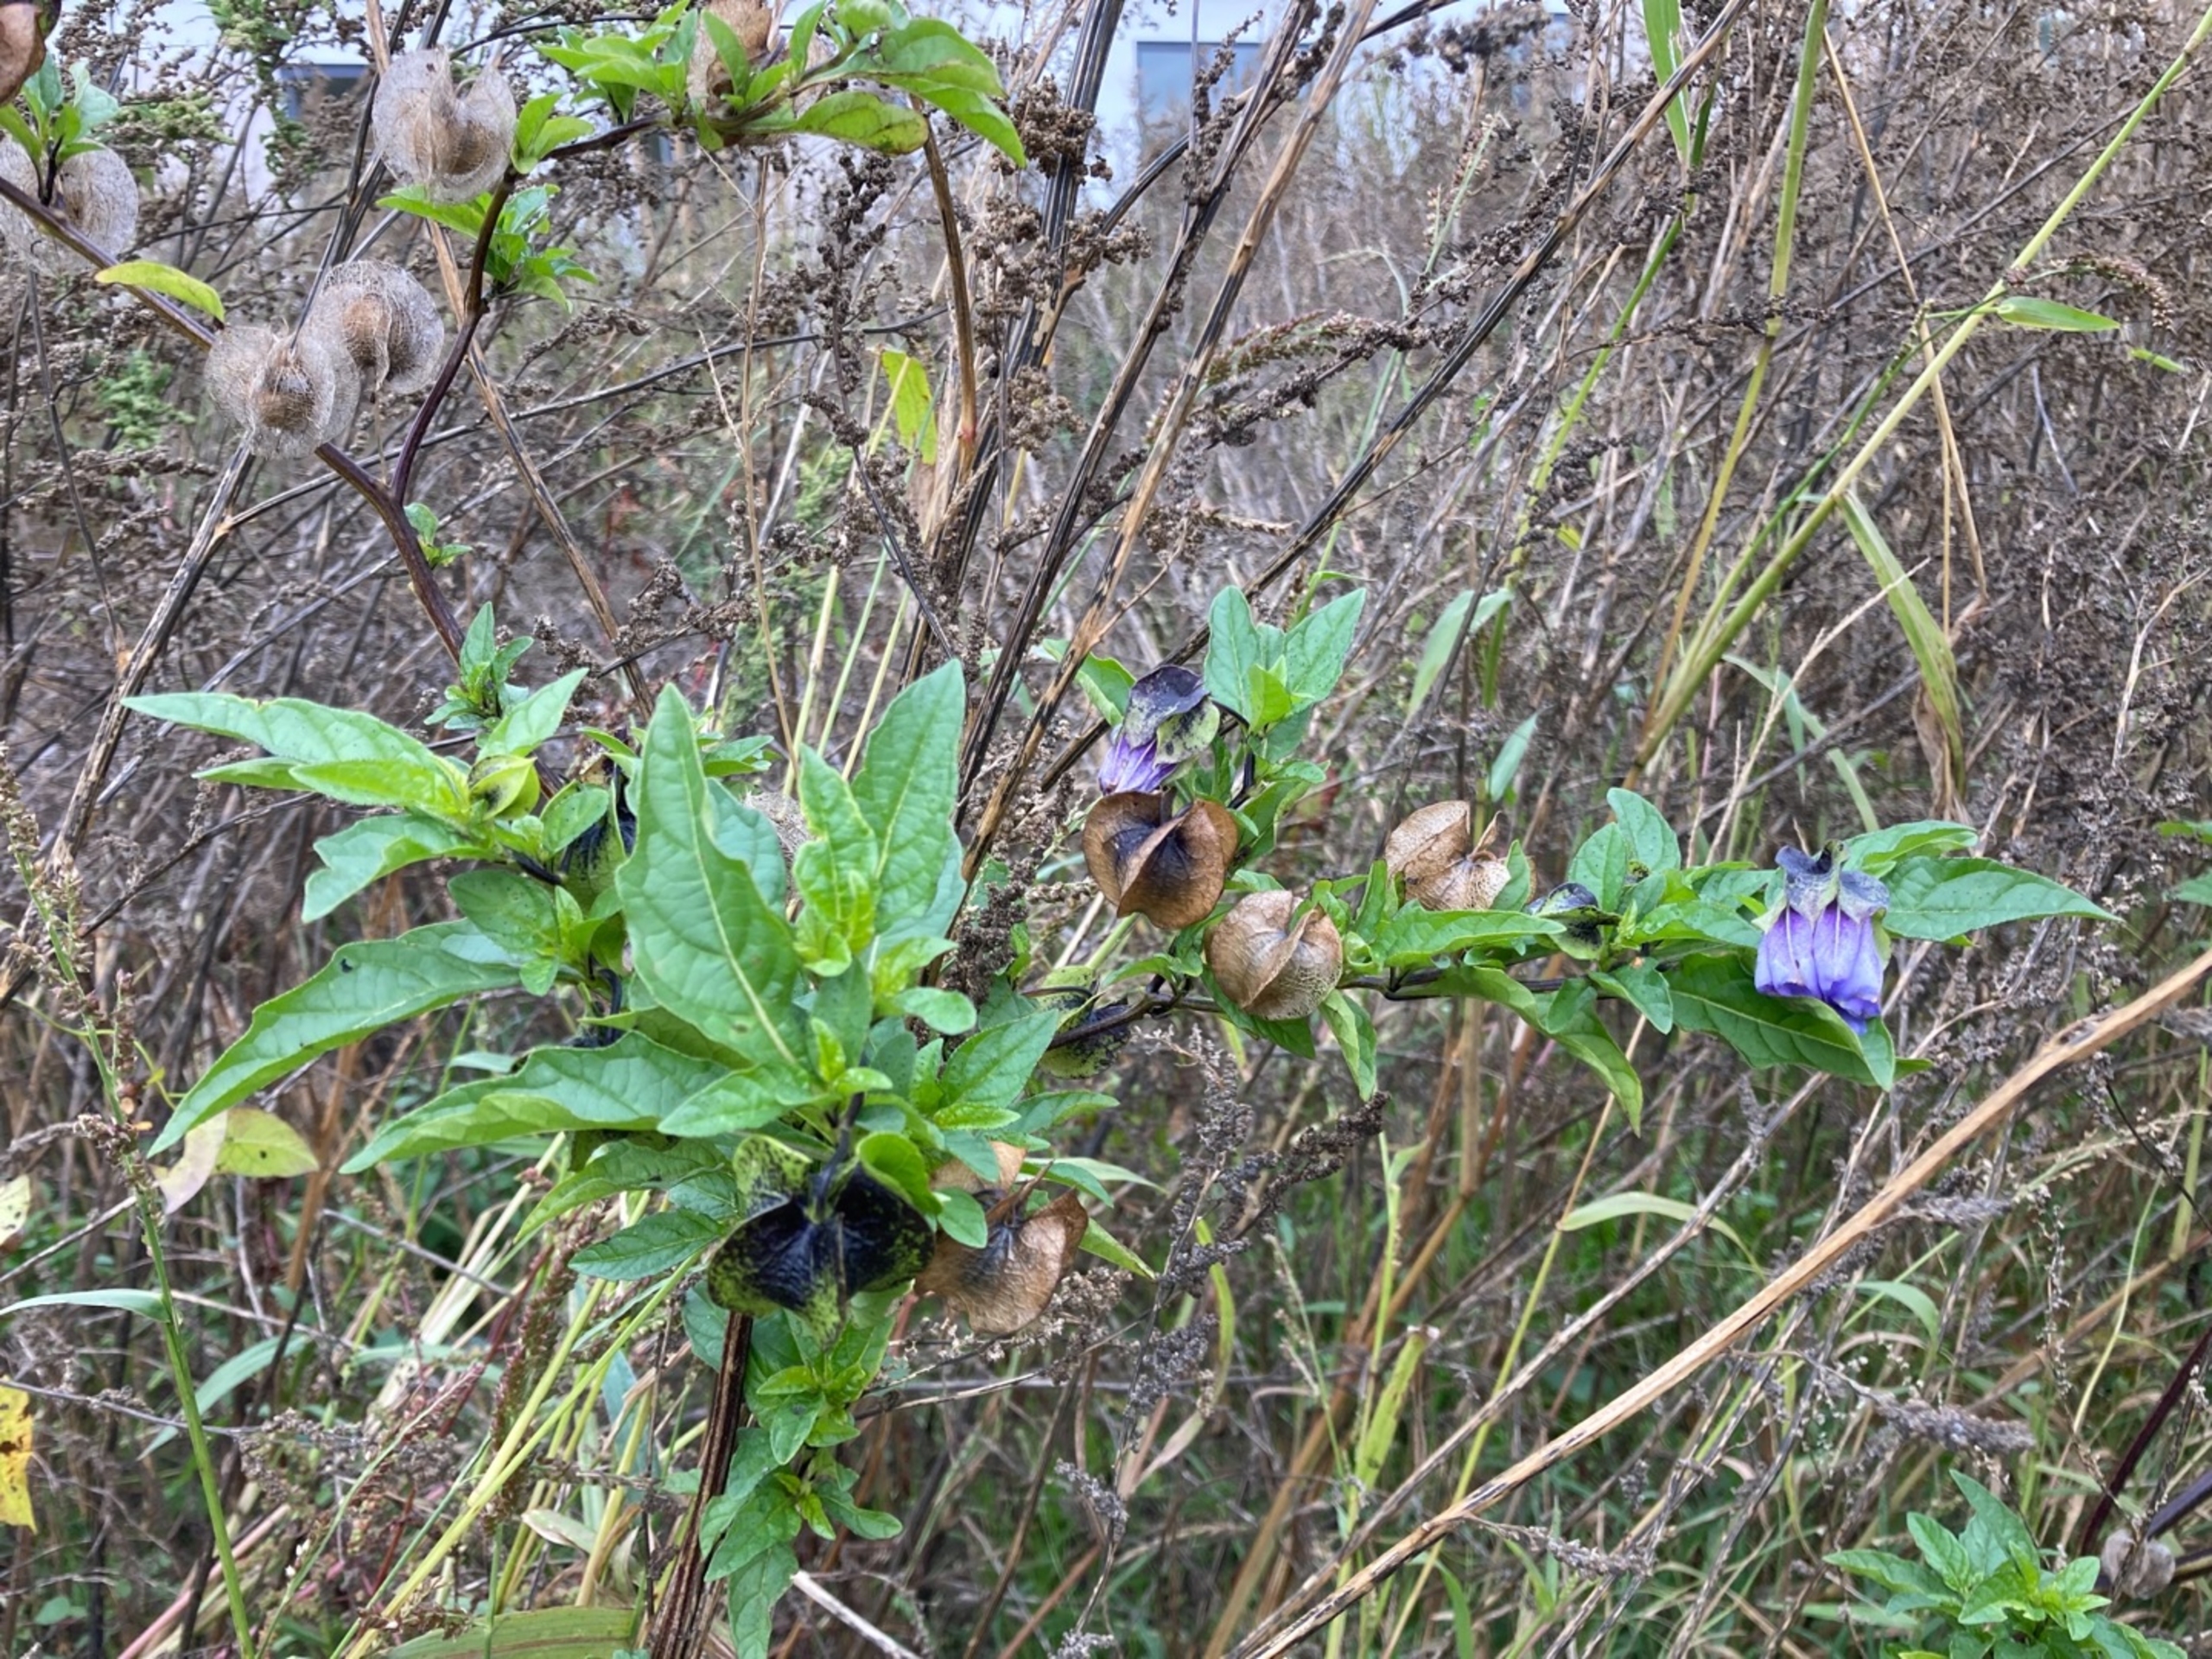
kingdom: Plantae
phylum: Tracheophyta
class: Magnoliopsida
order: Solanales
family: Solanaceae
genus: Nicandra
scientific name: Nicandra physalodes
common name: Kantbæger
